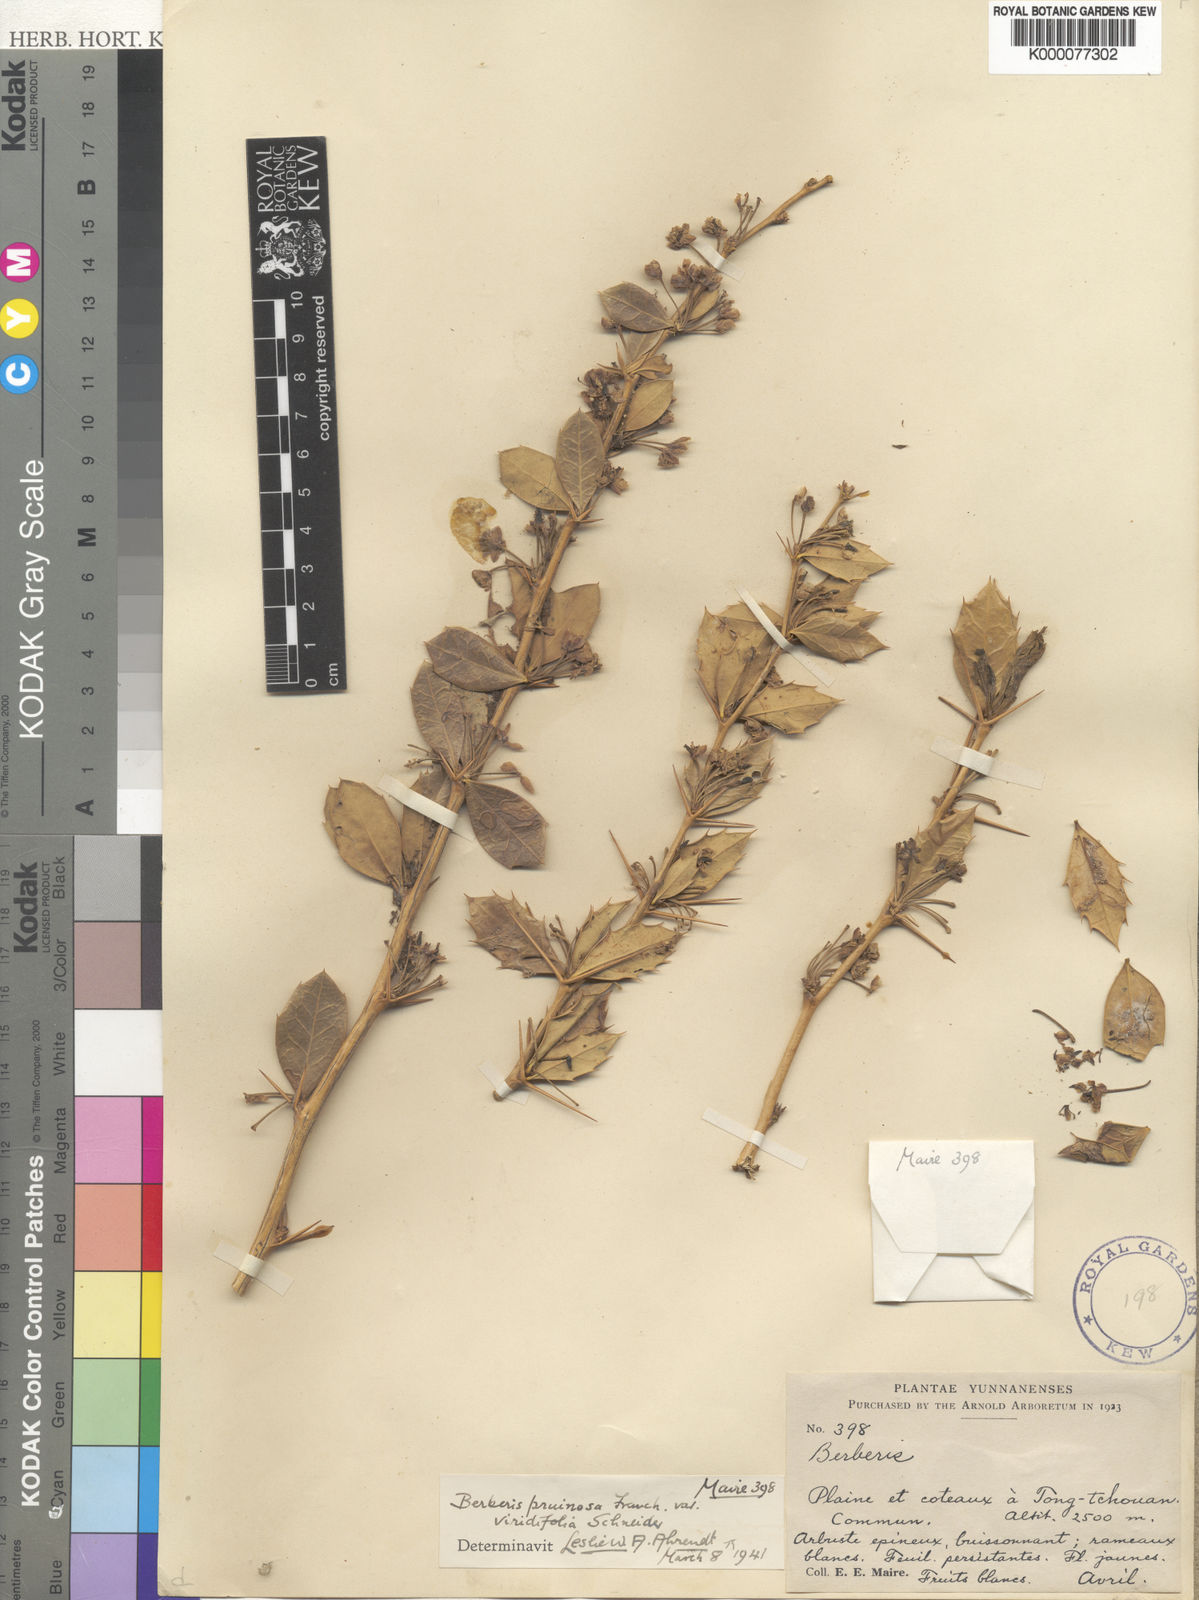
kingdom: Plantae
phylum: Tracheophyta
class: Magnoliopsida
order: Ranunculales
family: Berberidaceae
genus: Berberis
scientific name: Berberis pruinosa
